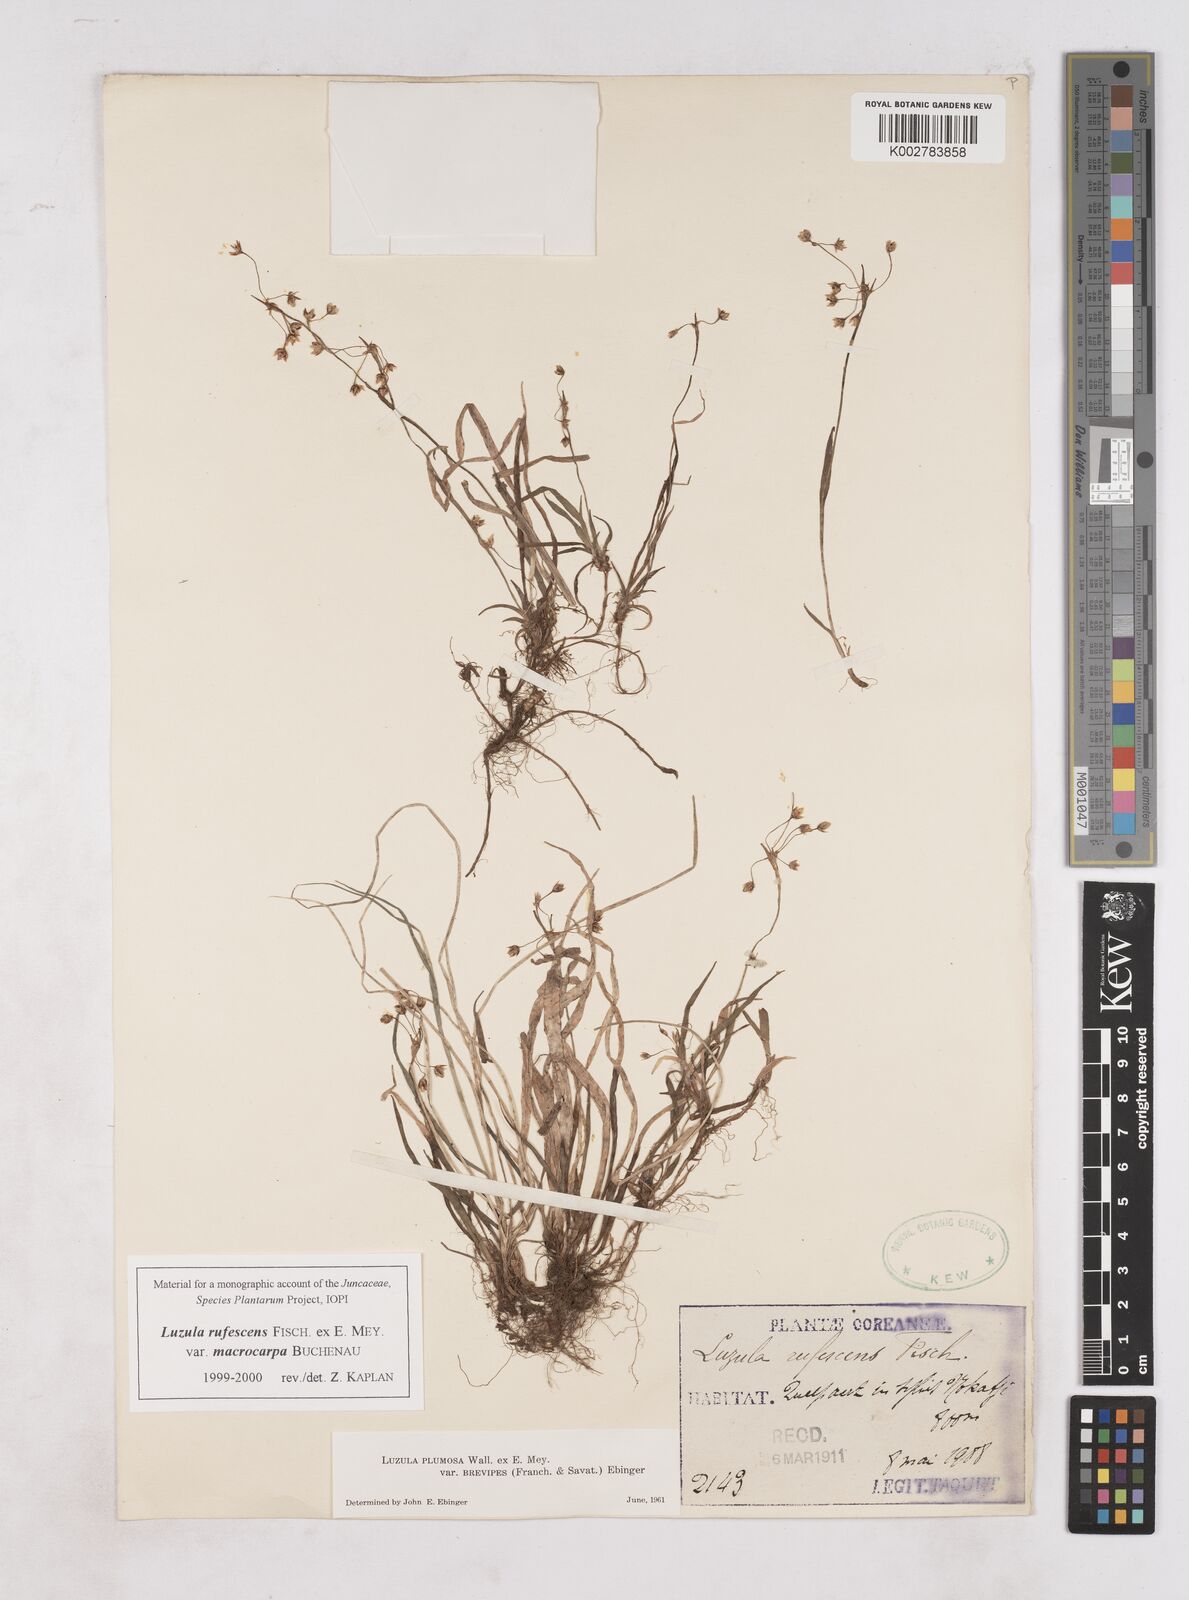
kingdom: Plantae
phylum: Tracheophyta
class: Liliopsida
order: Poales
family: Juncaceae
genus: Luzula
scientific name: Luzula rufescens
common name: Reddish woodrush
